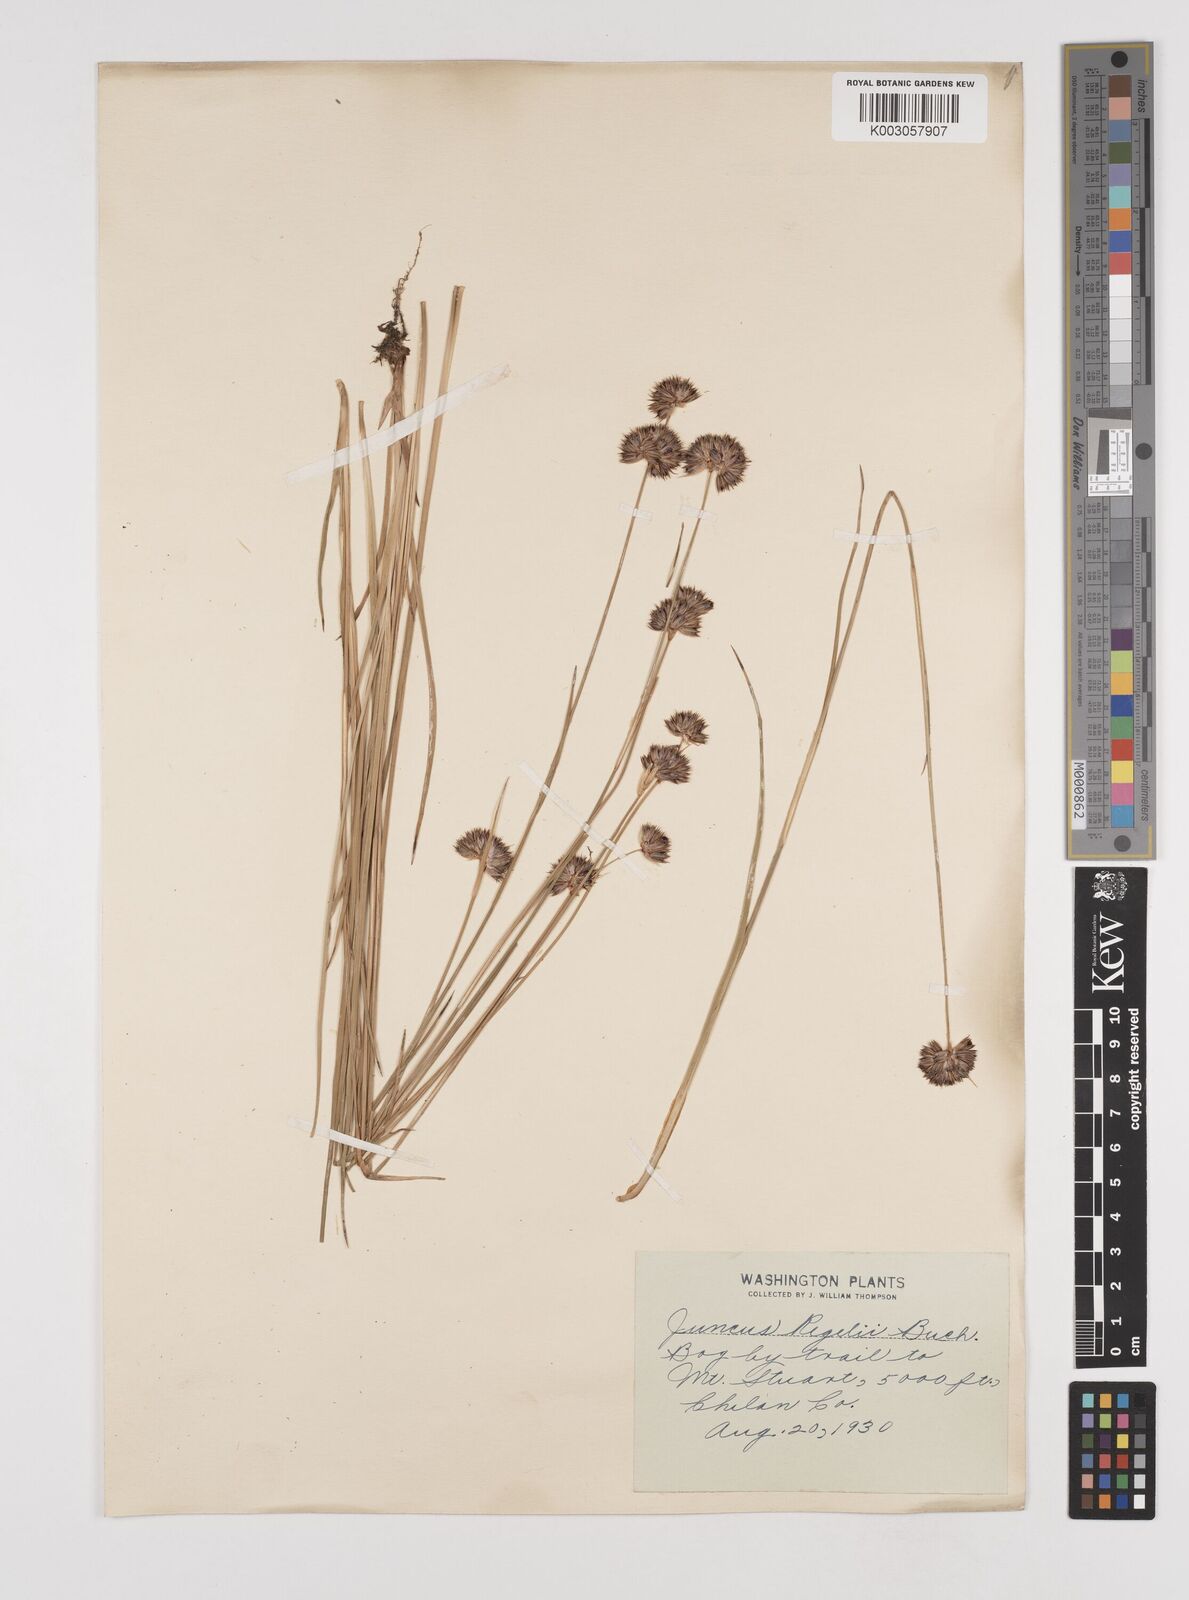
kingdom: Plantae
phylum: Tracheophyta
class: Liliopsida
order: Poales
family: Juncaceae
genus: Juncus
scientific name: Juncus regelii
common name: Regel's rush
